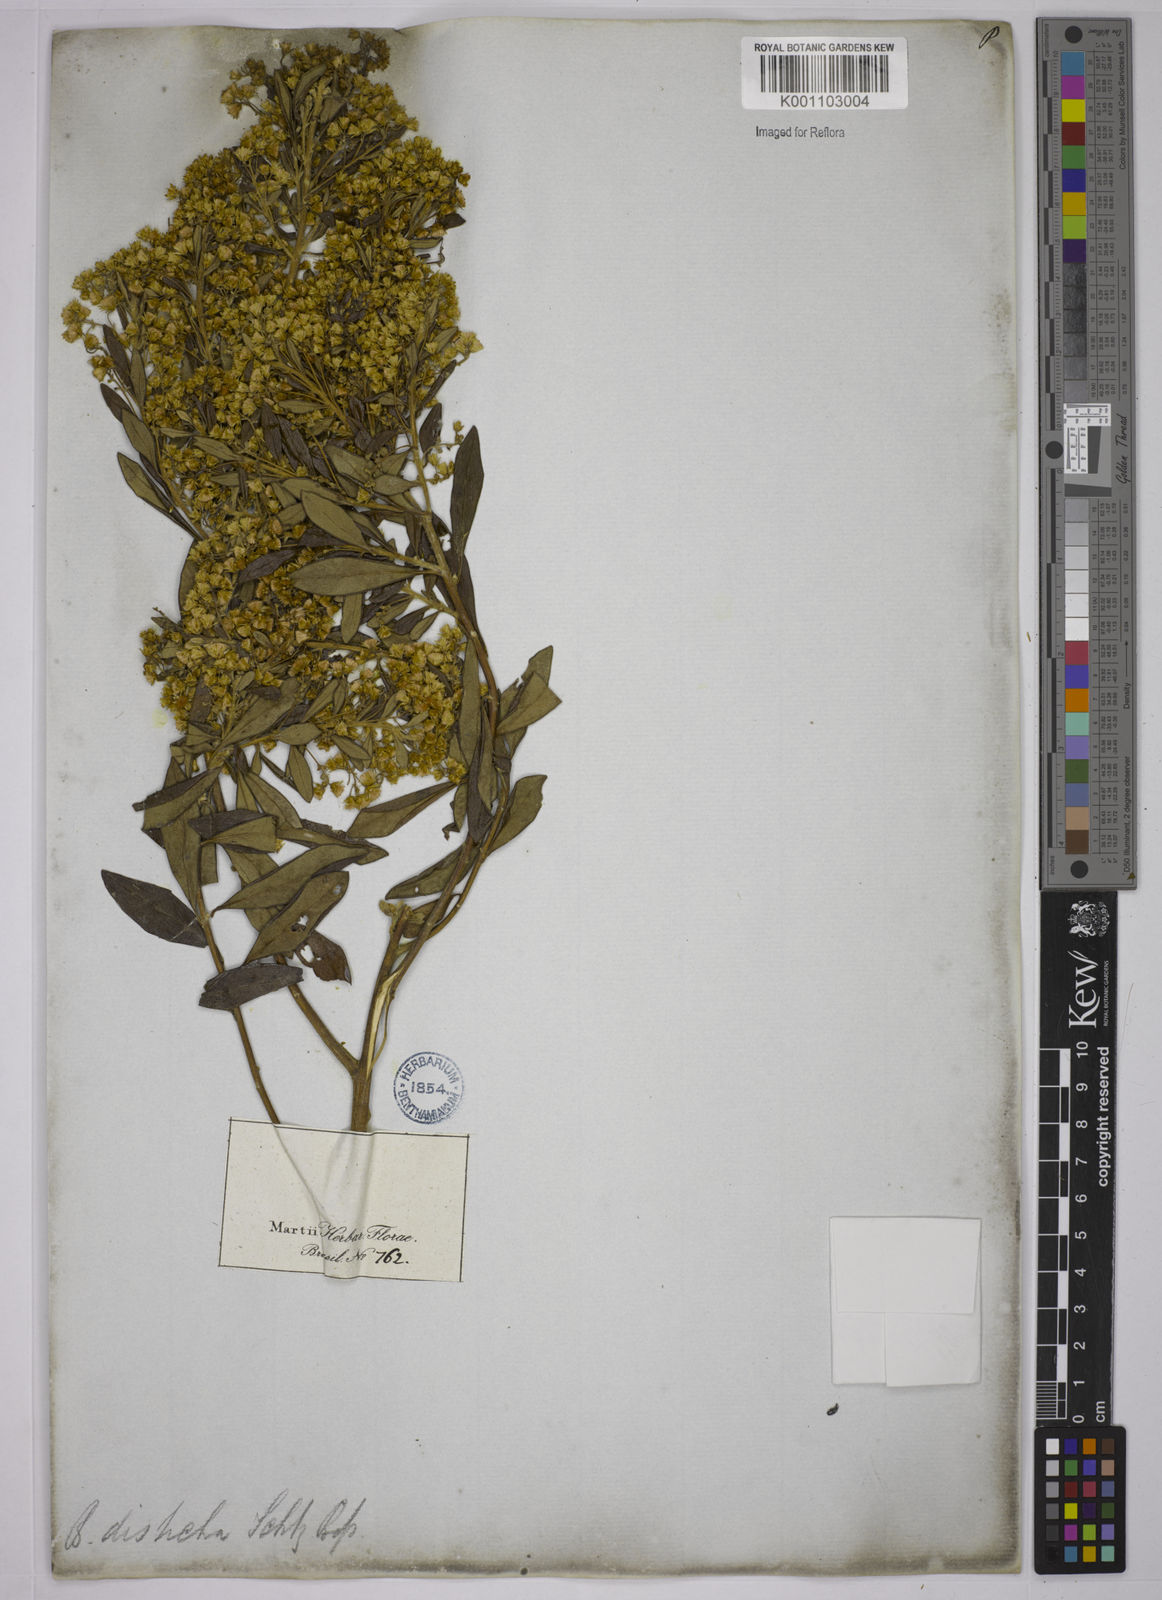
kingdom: Plantae
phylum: Tracheophyta
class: Magnoliopsida
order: Asterales
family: Asteraceae
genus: Baccharis
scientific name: Baccharis calvescens
